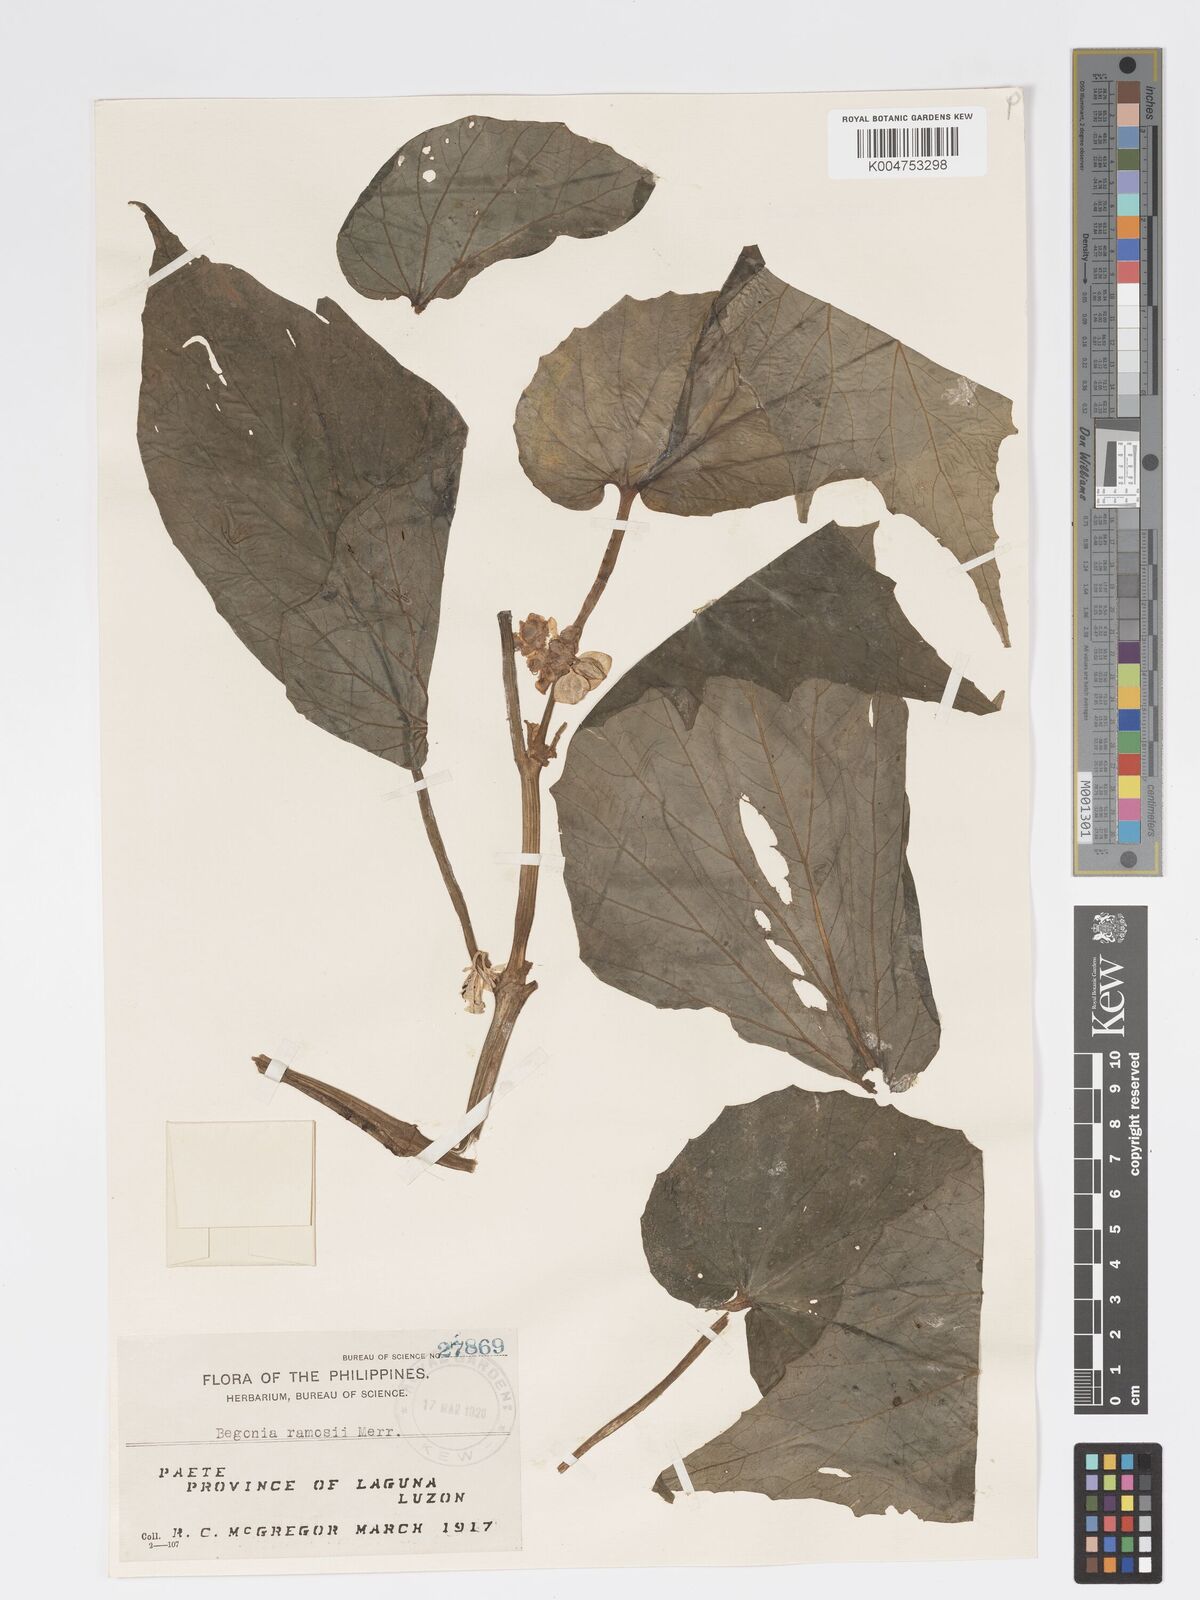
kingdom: Plantae
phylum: Tracheophyta
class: Magnoliopsida
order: Cucurbitales
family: Begoniaceae
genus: Begonia
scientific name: Begonia ramosii
